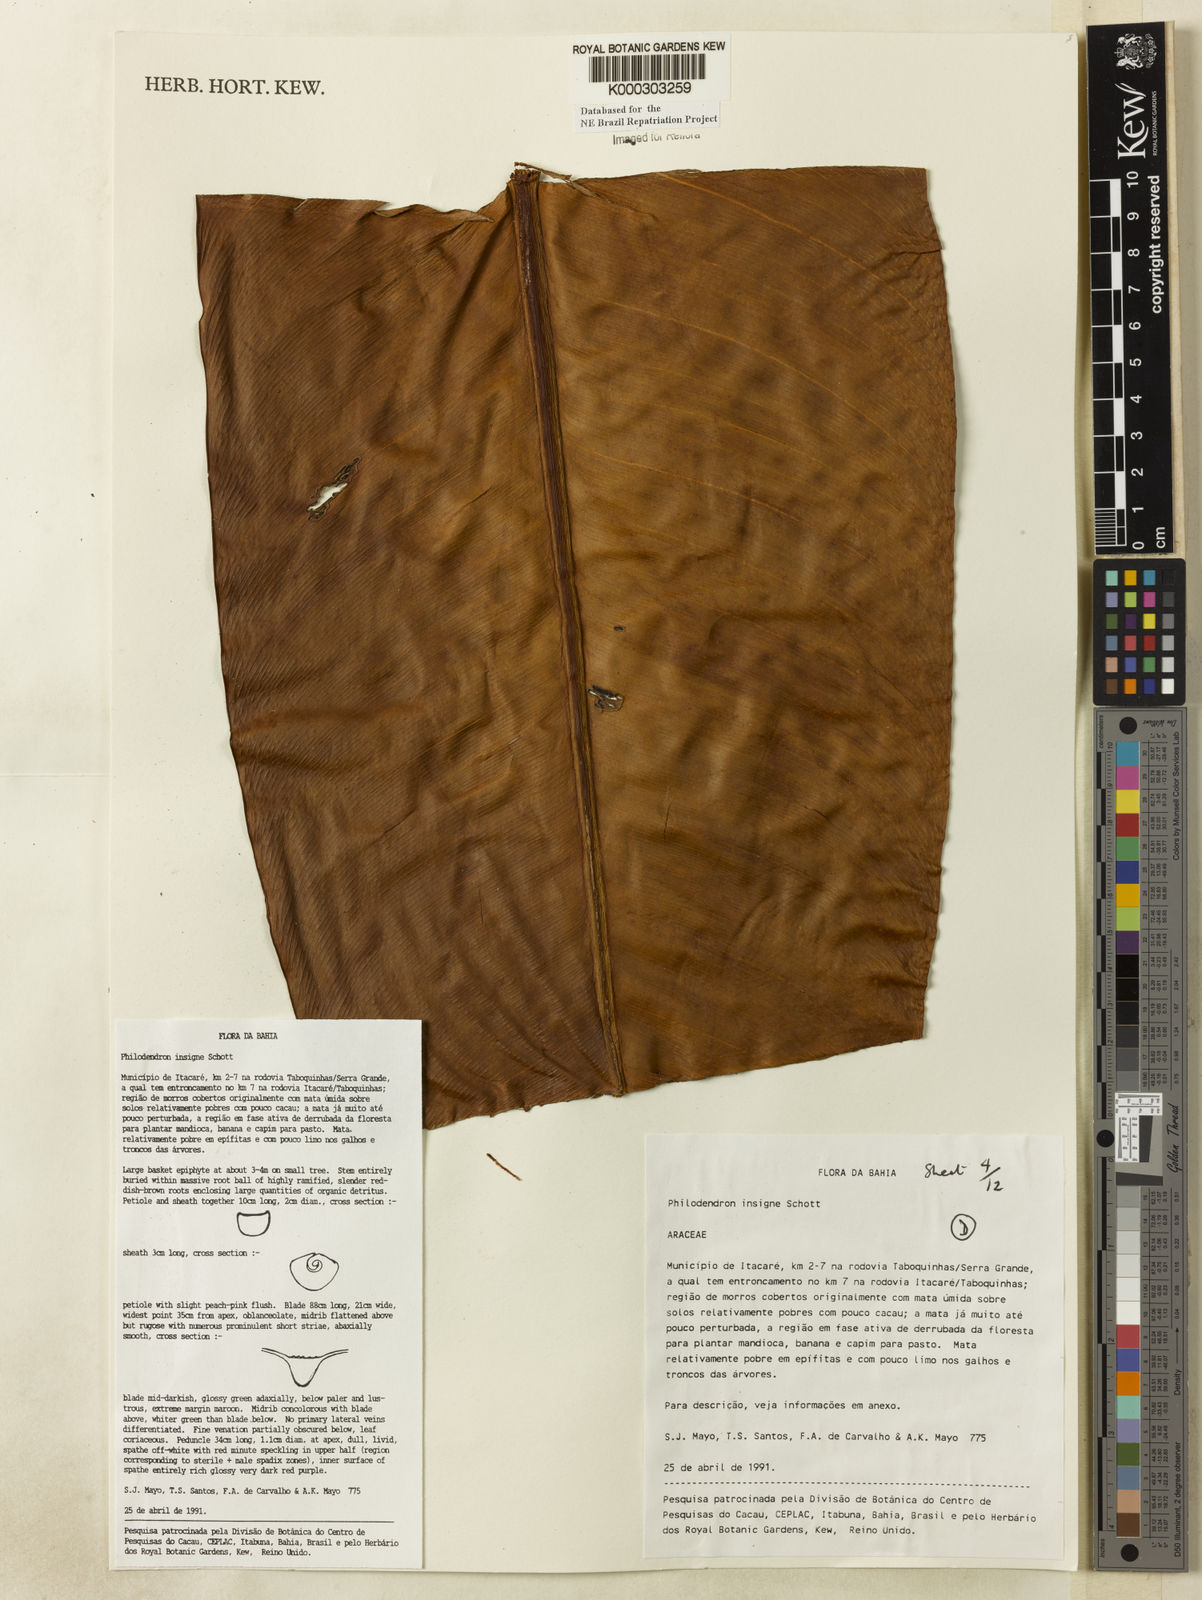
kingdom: Plantae
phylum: Tracheophyta
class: Liliopsida
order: Alismatales
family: Araceae
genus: Philodendron
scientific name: Philodendron insigne
